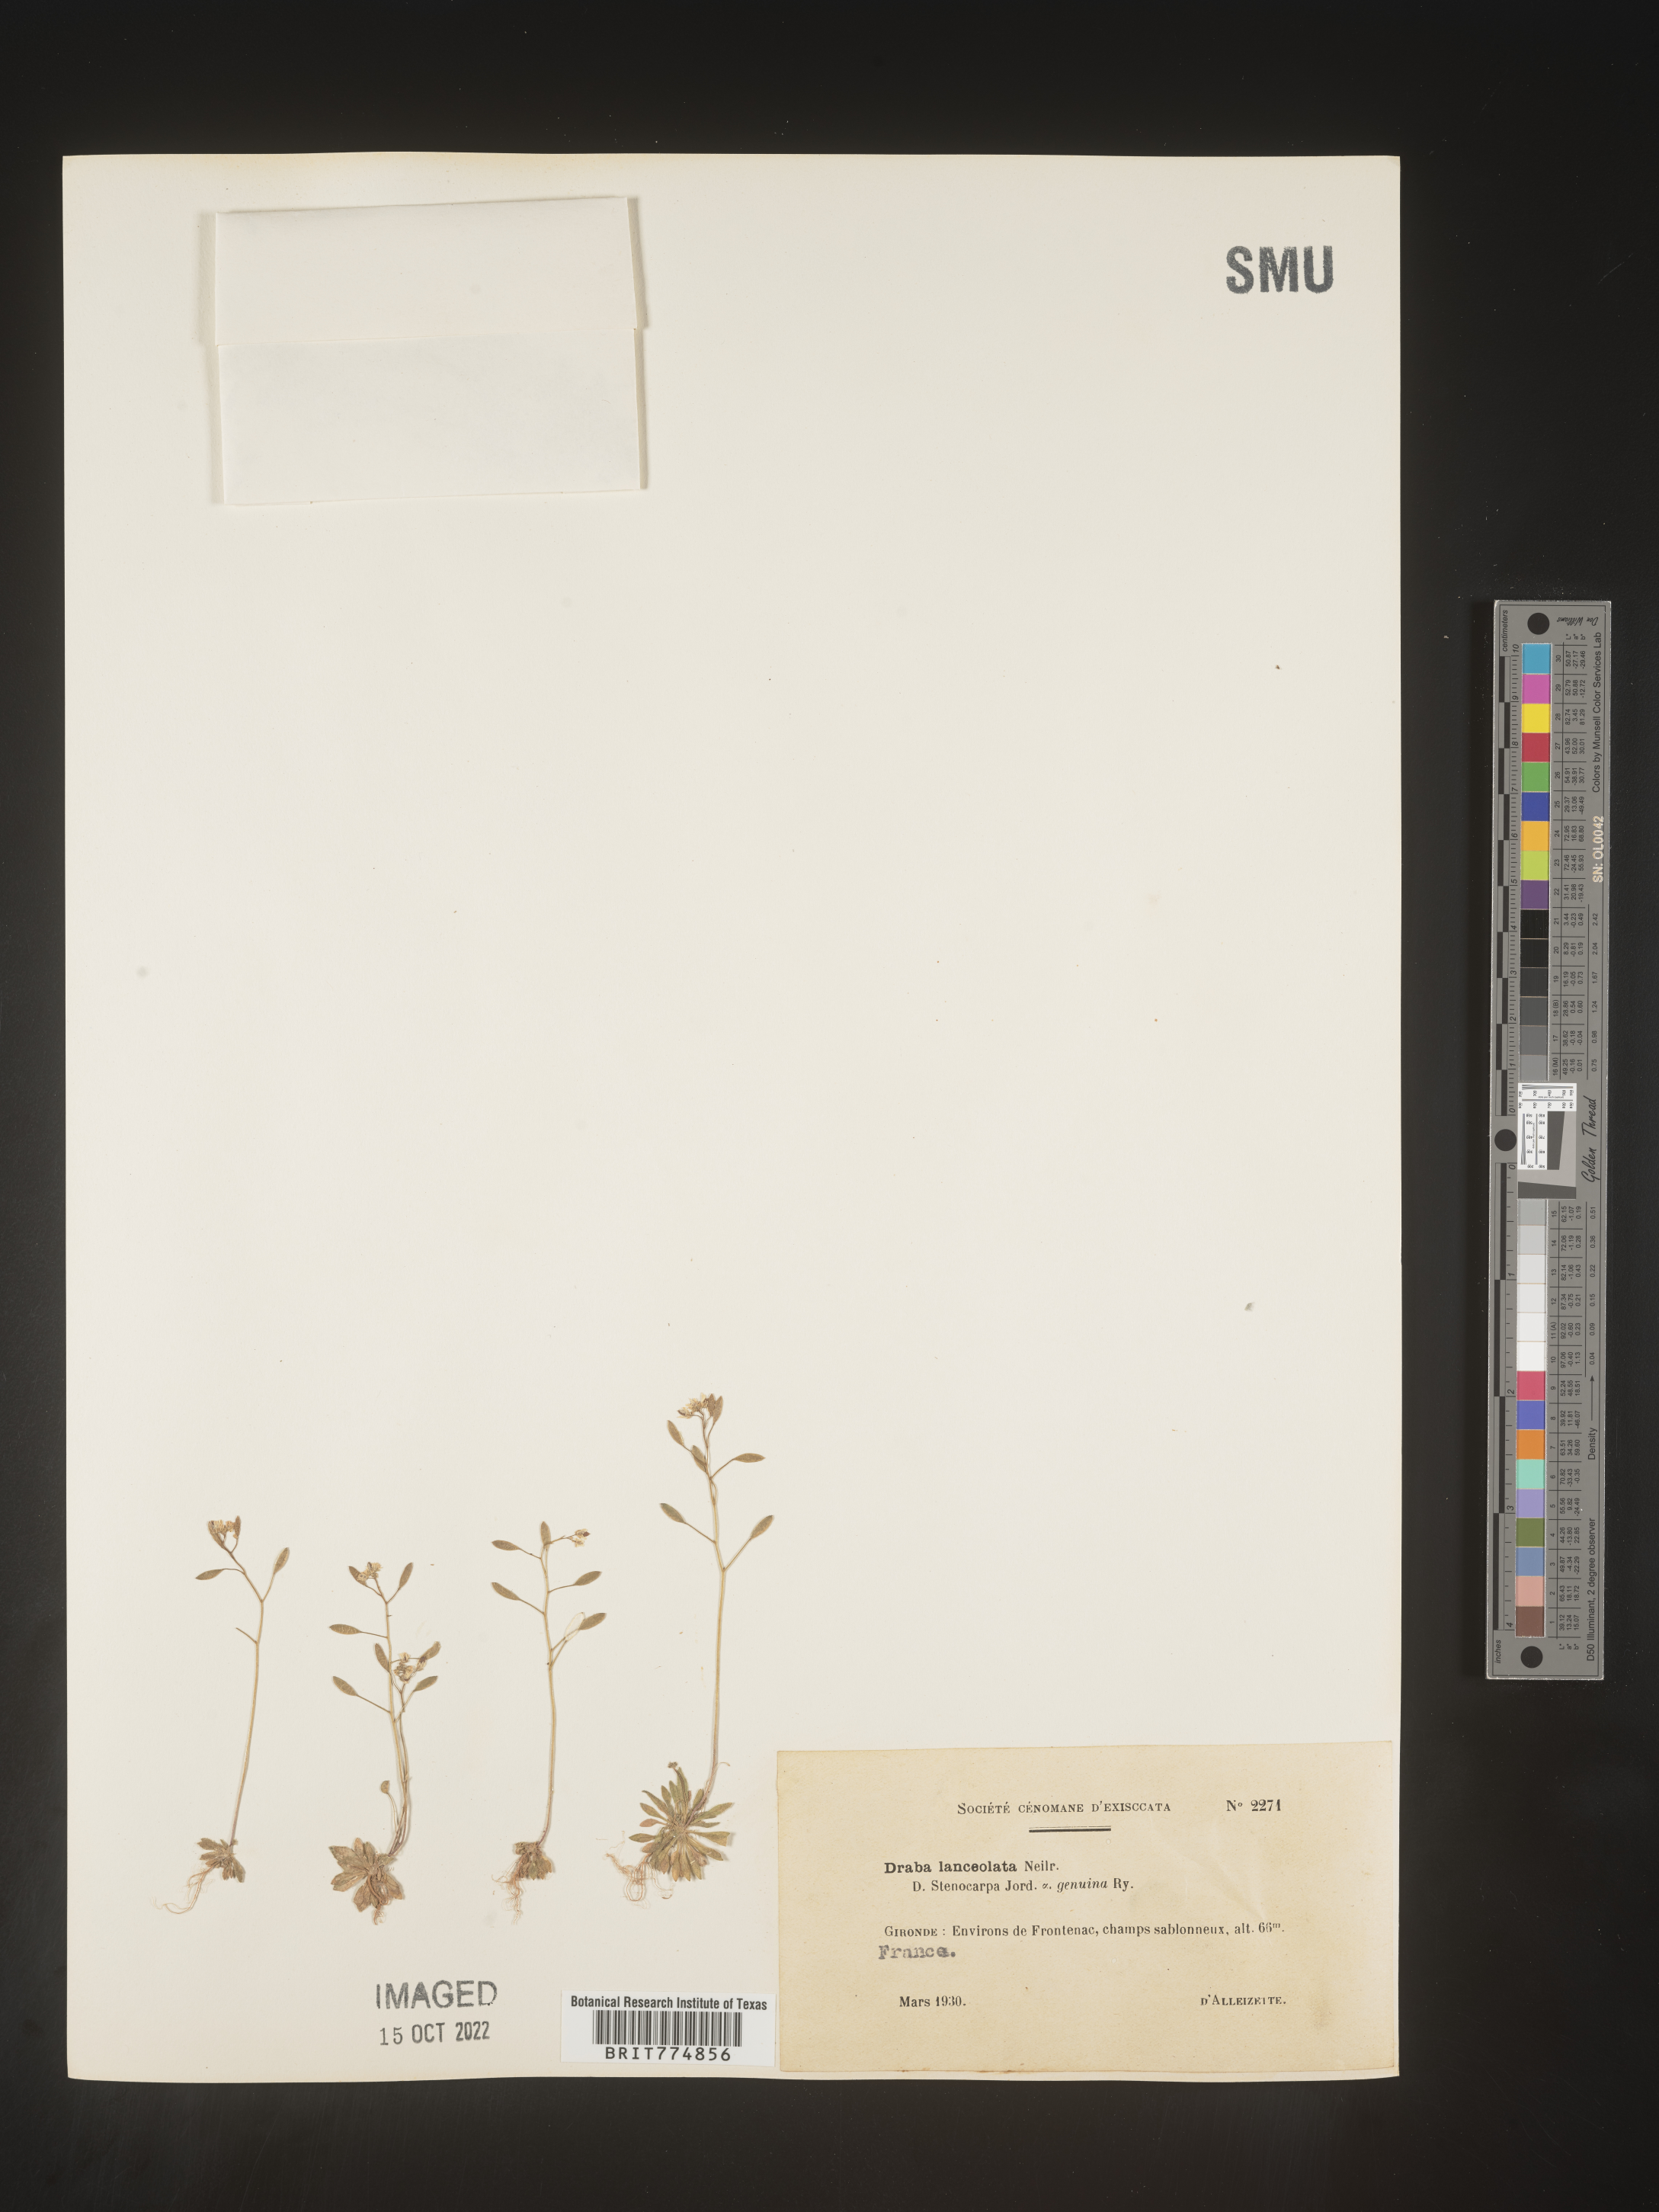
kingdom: Plantae
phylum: Tracheophyta
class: Magnoliopsida
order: Brassicales
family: Brassicaceae
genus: Draba
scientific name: Draba
